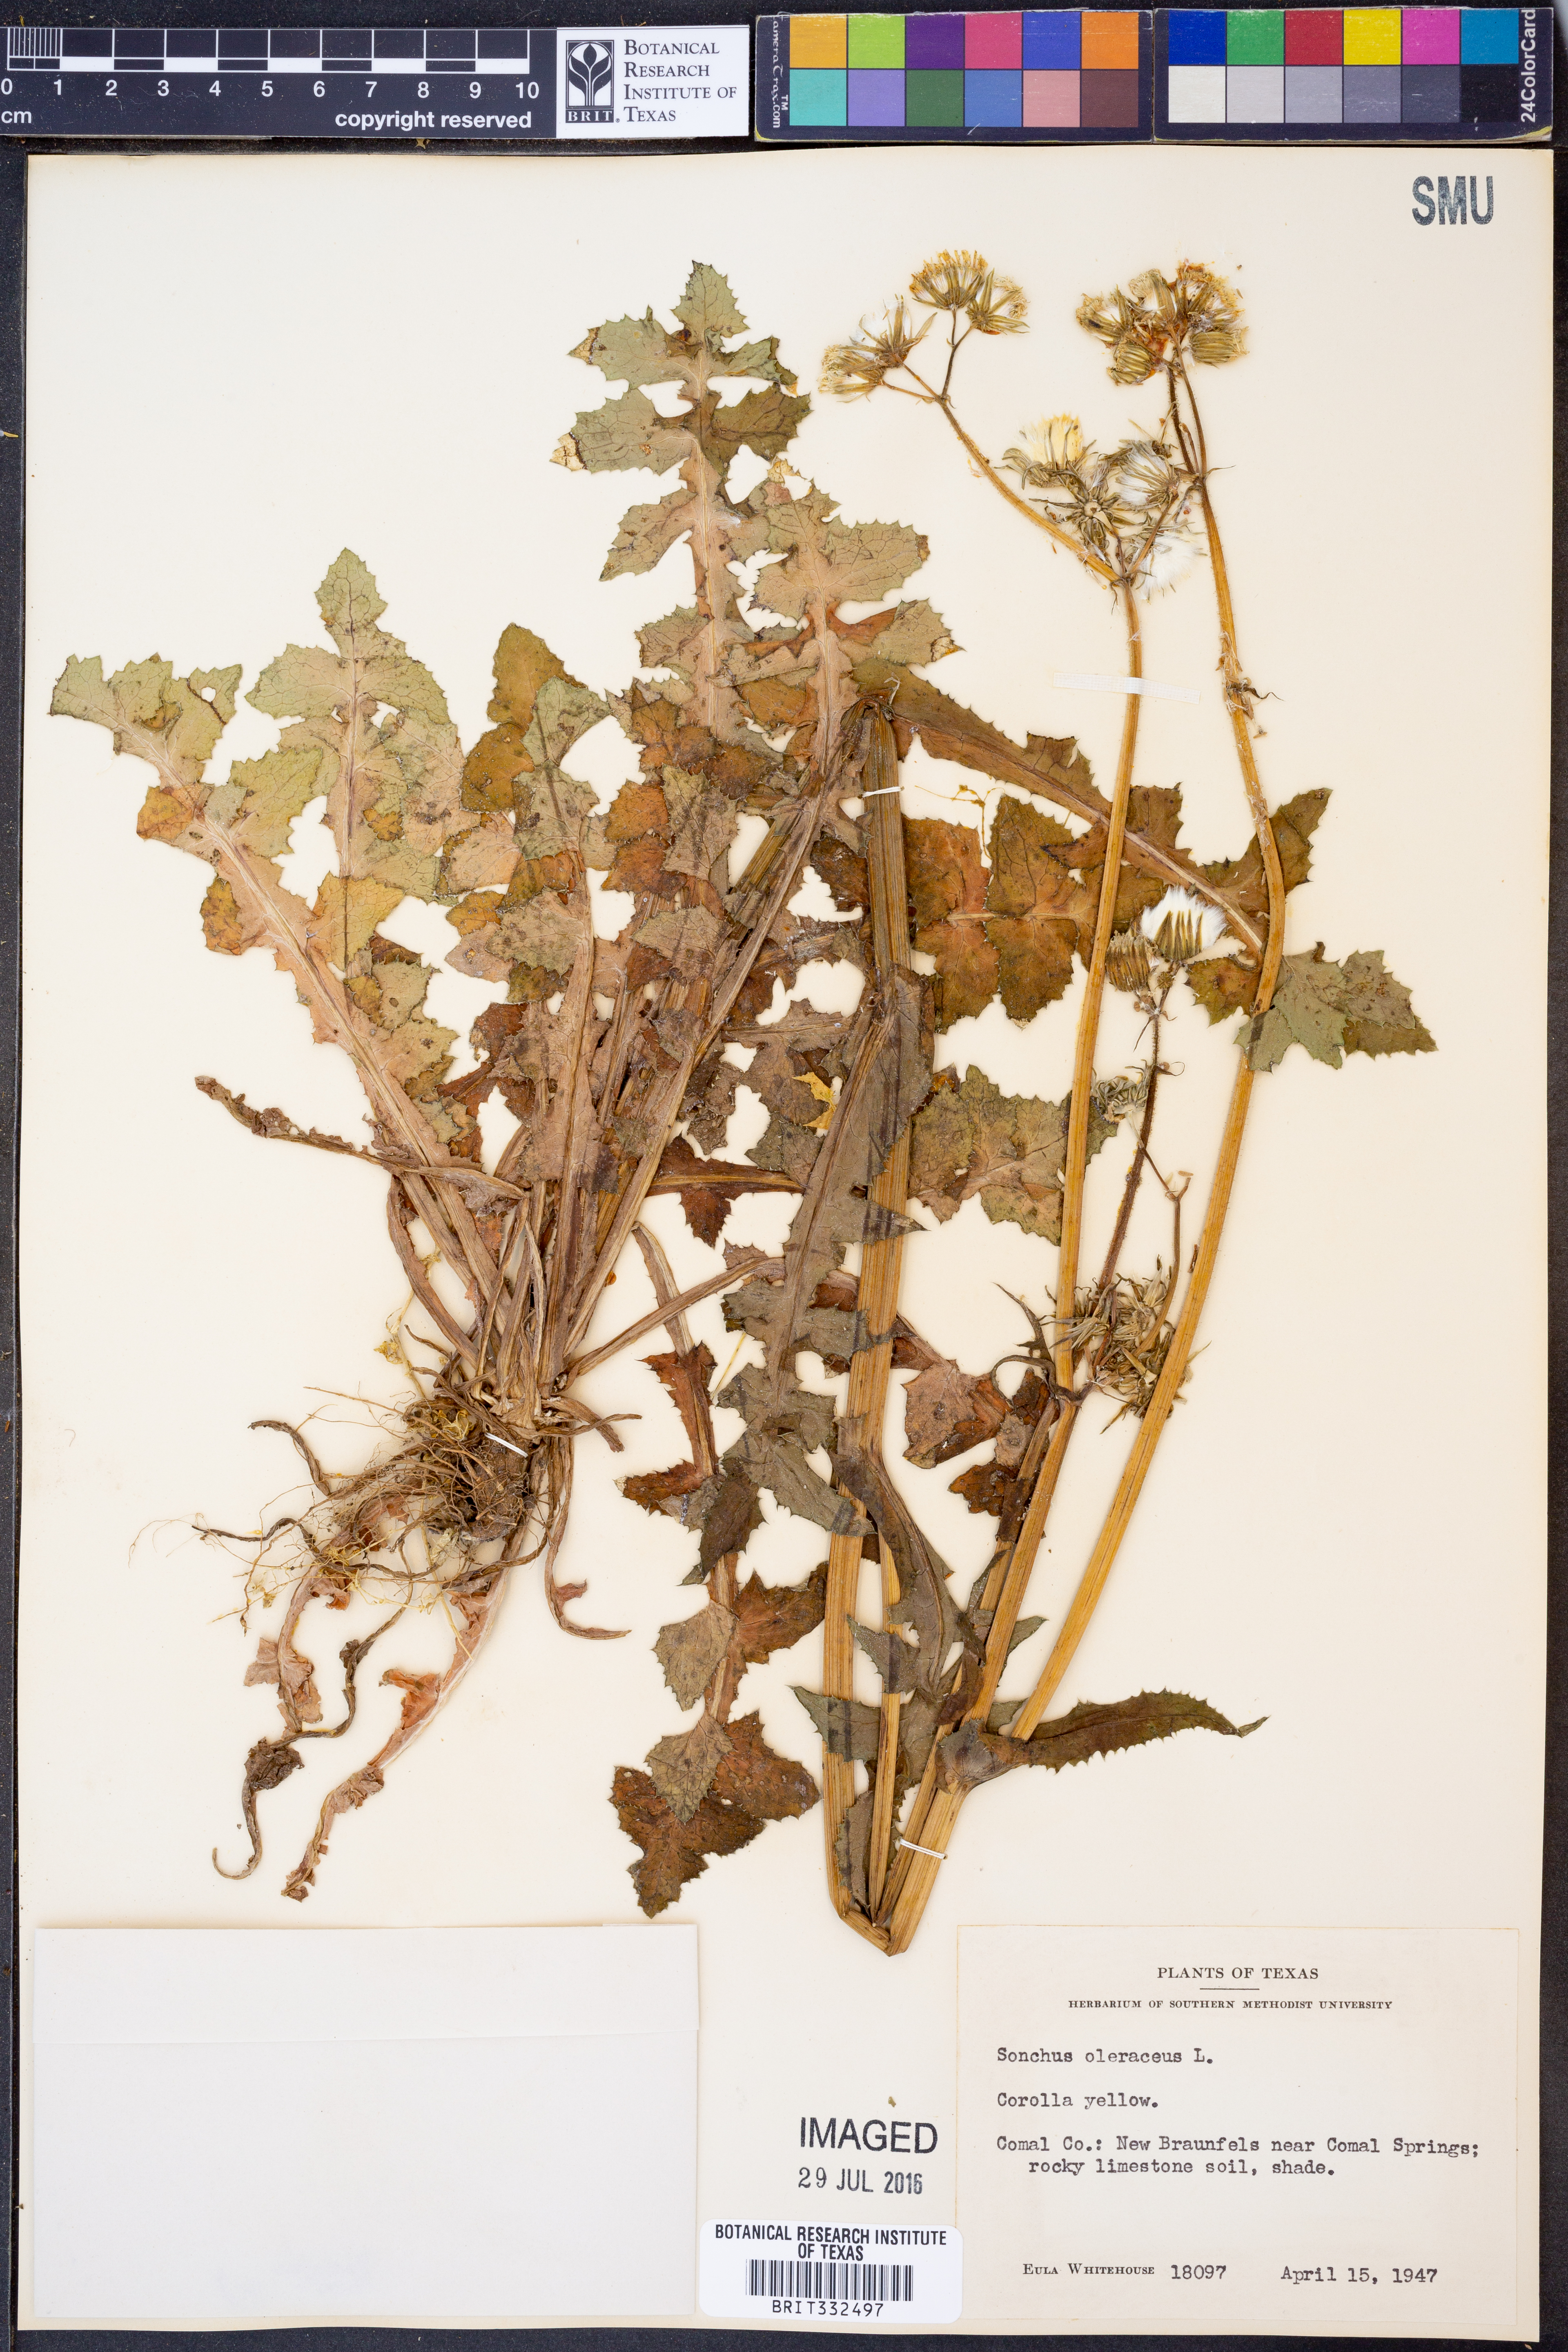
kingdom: Plantae
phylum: Tracheophyta
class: Magnoliopsida
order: Asterales
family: Asteraceae
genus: Sonchus
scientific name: Sonchus oleraceus
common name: Common sowthistle
